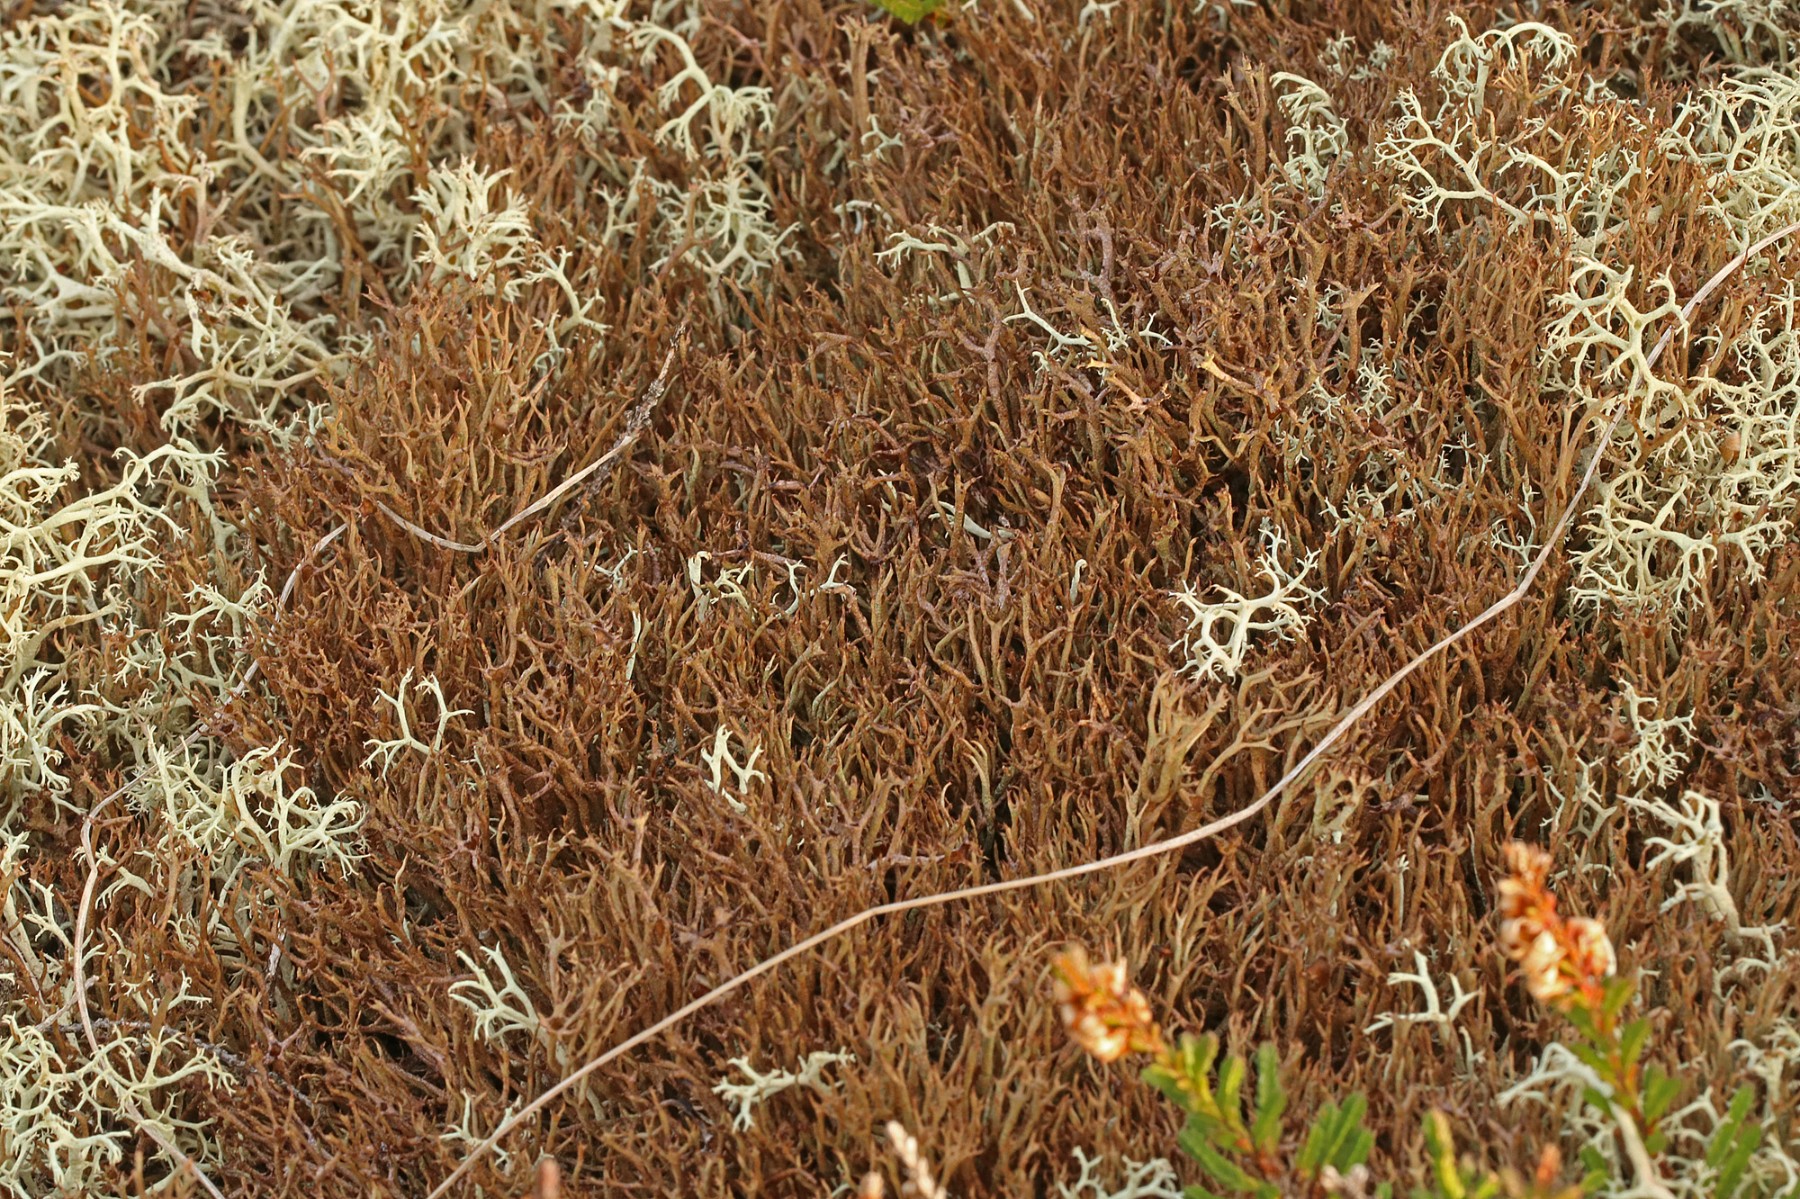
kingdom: Fungi
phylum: Ascomycota
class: Lecanoromycetes
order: Lecanorales
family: Cladoniaceae
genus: Cladonia
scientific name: Cladonia crispata
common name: takket bægerlav
